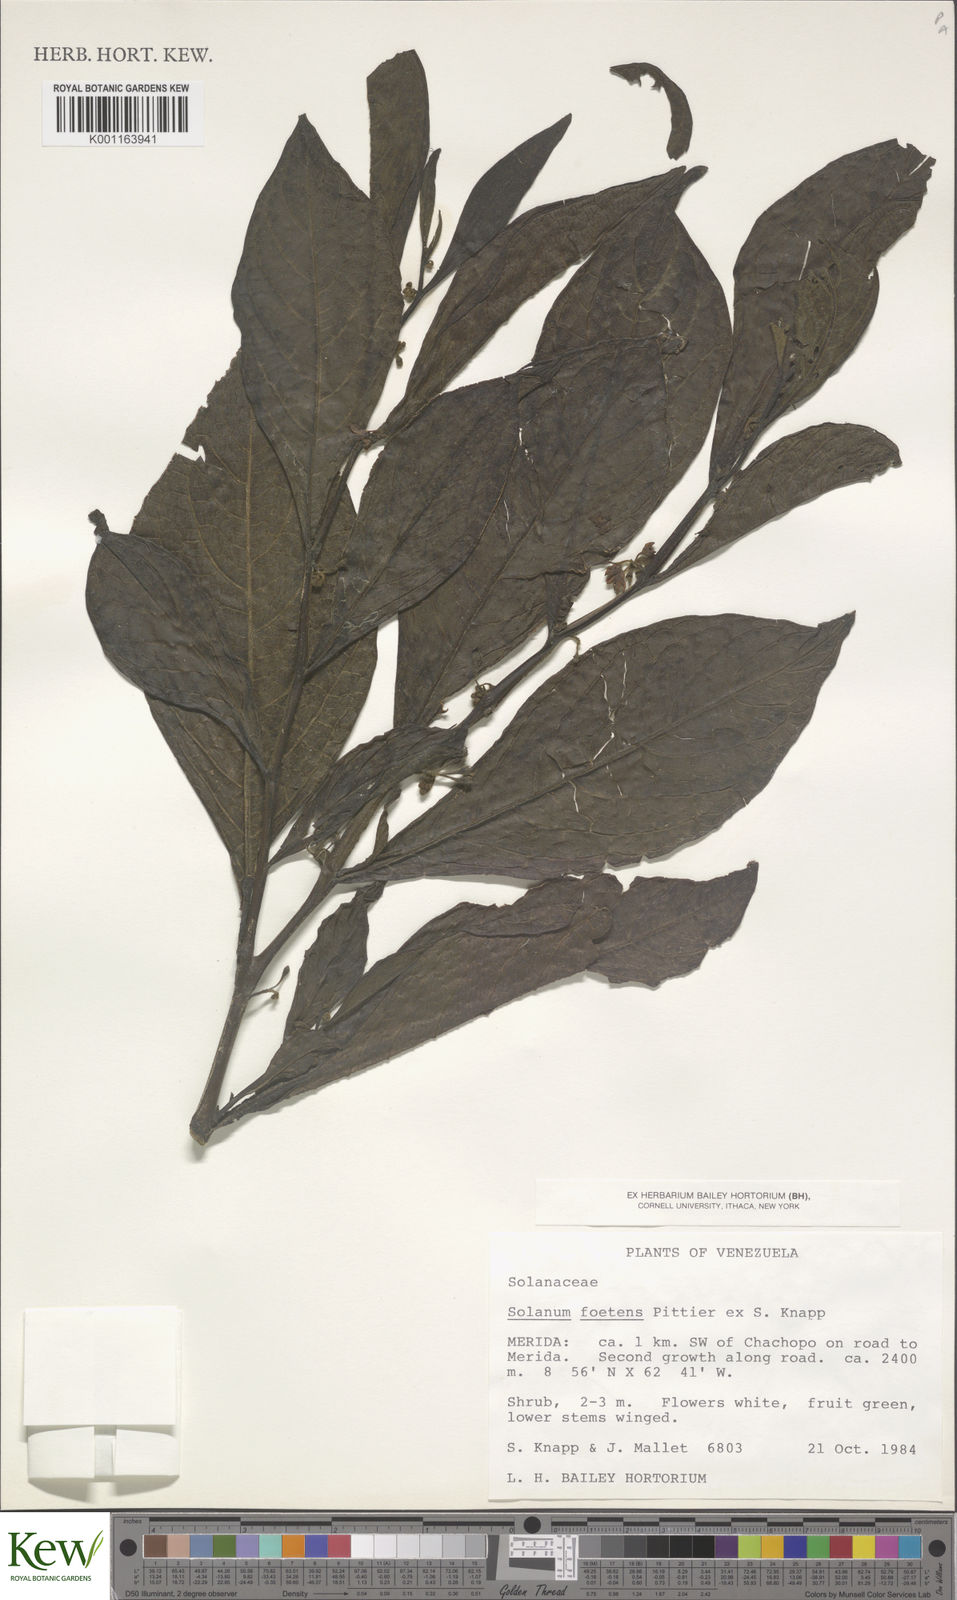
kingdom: Plantae
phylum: Tracheophyta
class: Magnoliopsida
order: Solanales
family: Solanaceae
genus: Solanum
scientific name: Solanum foetens
